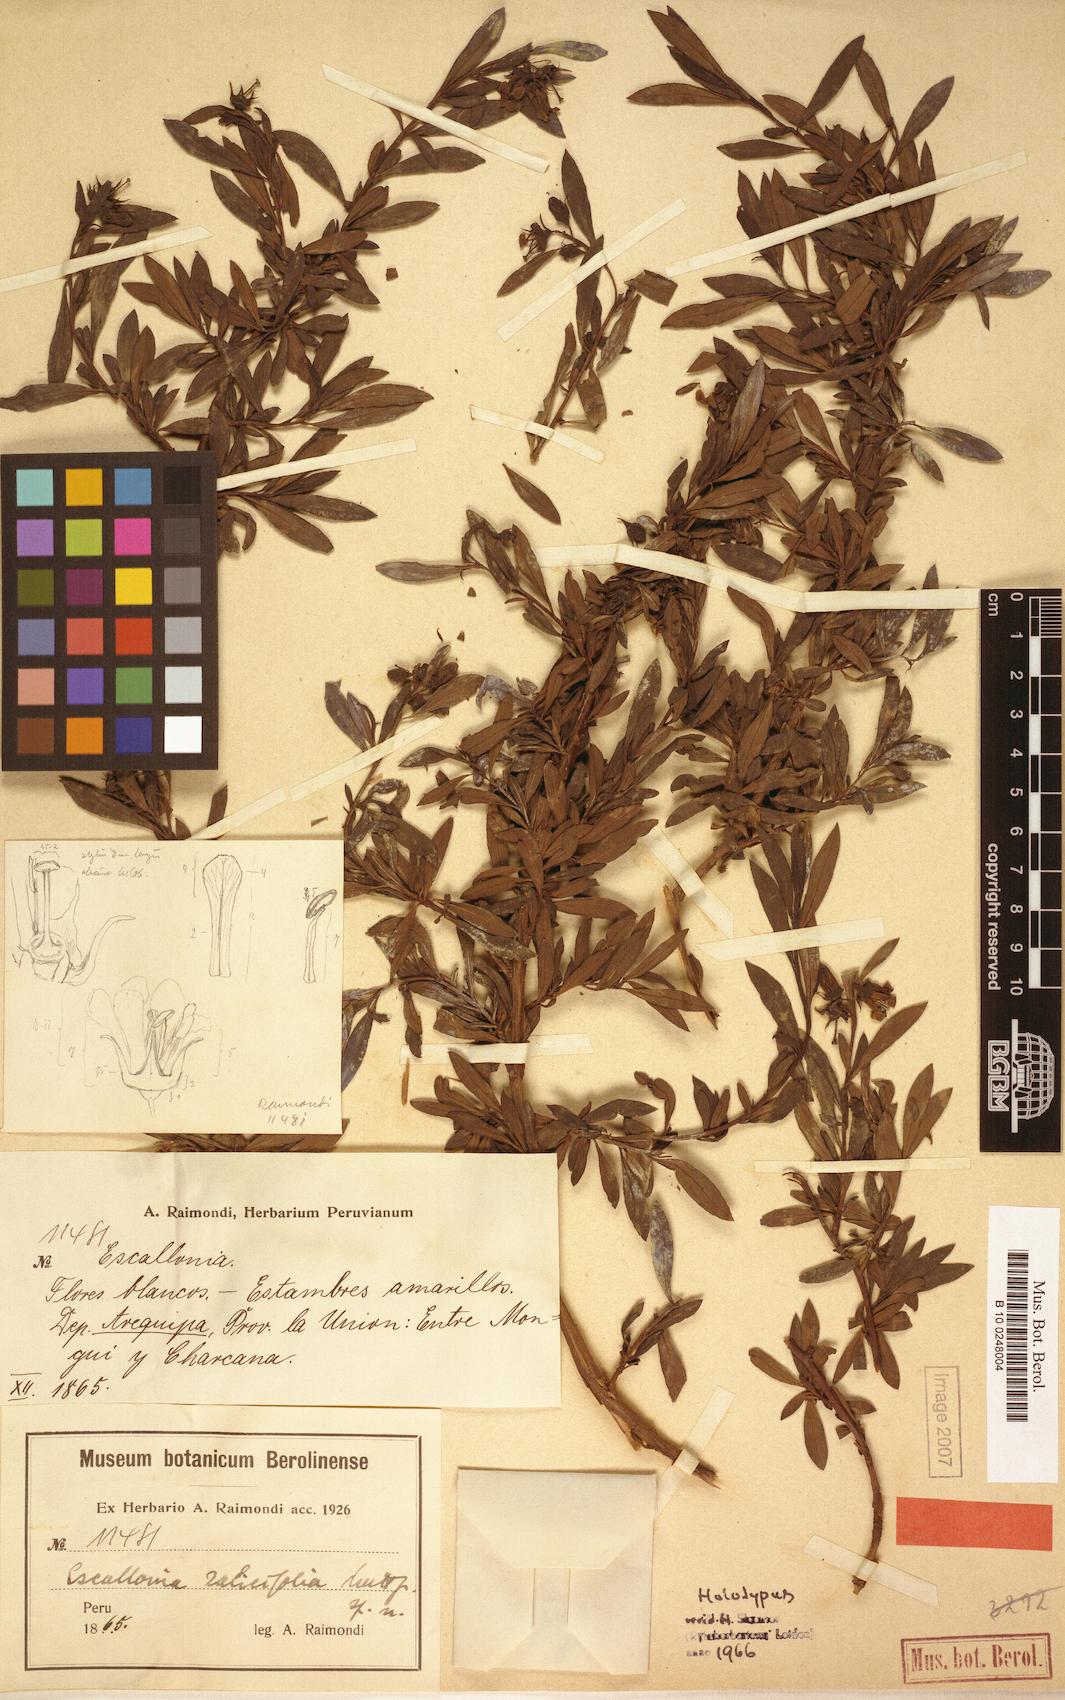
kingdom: Plantae
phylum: Tracheophyta
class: Magnoliopsida
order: Escalloniales
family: Escalloniaceae
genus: Escallonia
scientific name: Escallonia salicifolia
